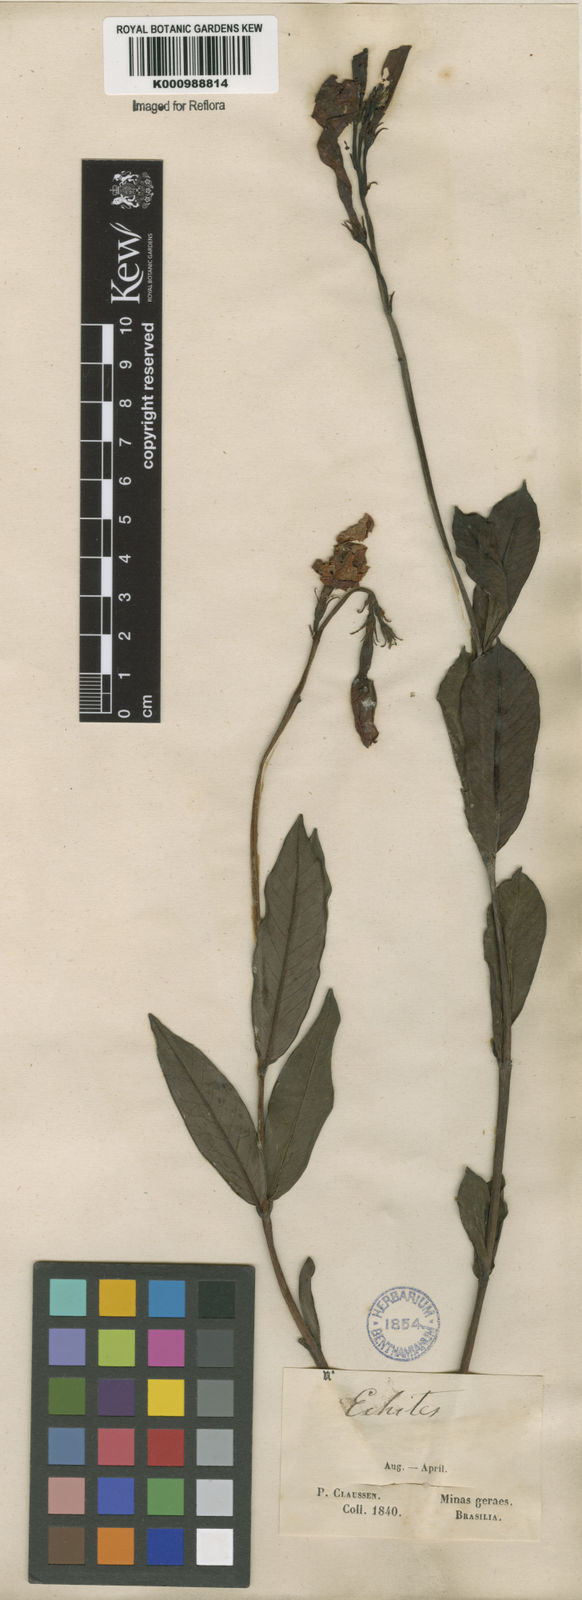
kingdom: Plantae
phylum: Tracheophyta
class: Magnoliopsida
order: Gentianales
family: Apocynaceae
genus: Mandevilla
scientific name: Mandevilla
